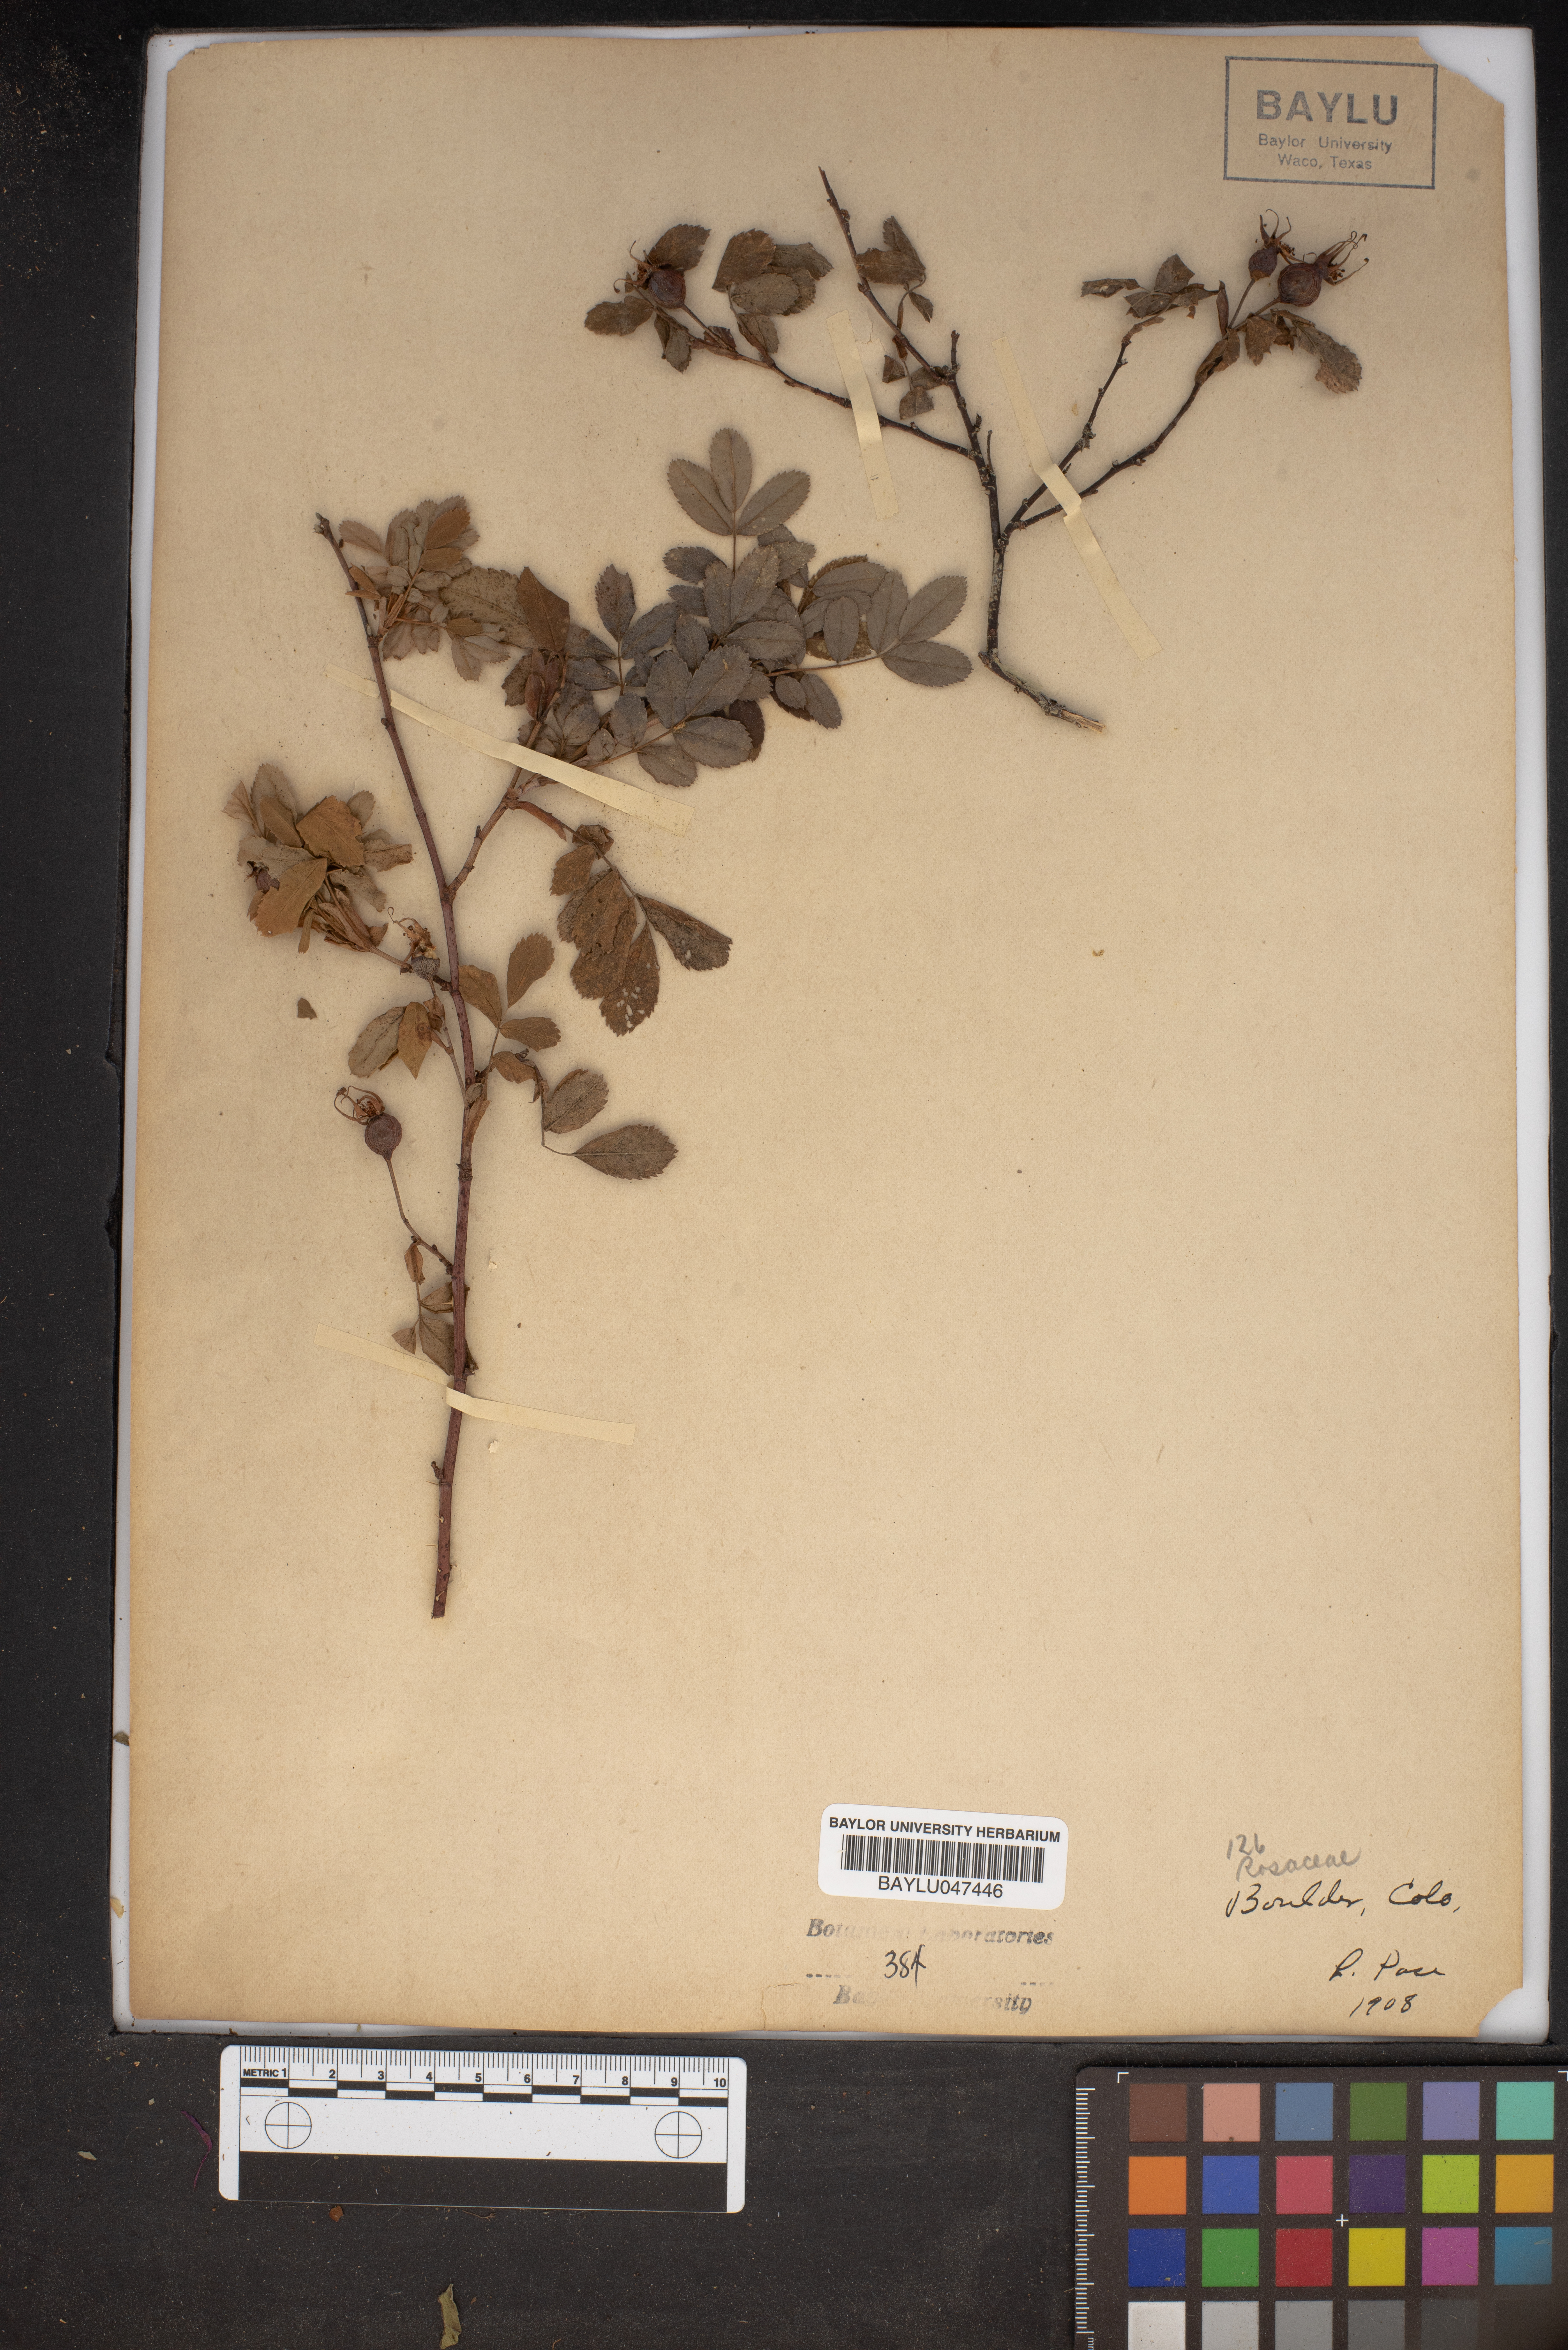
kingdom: Plantae
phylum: Tracheophyta
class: Magnoliopsida
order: Rosales
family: Rosaceae
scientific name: Rosaceae
